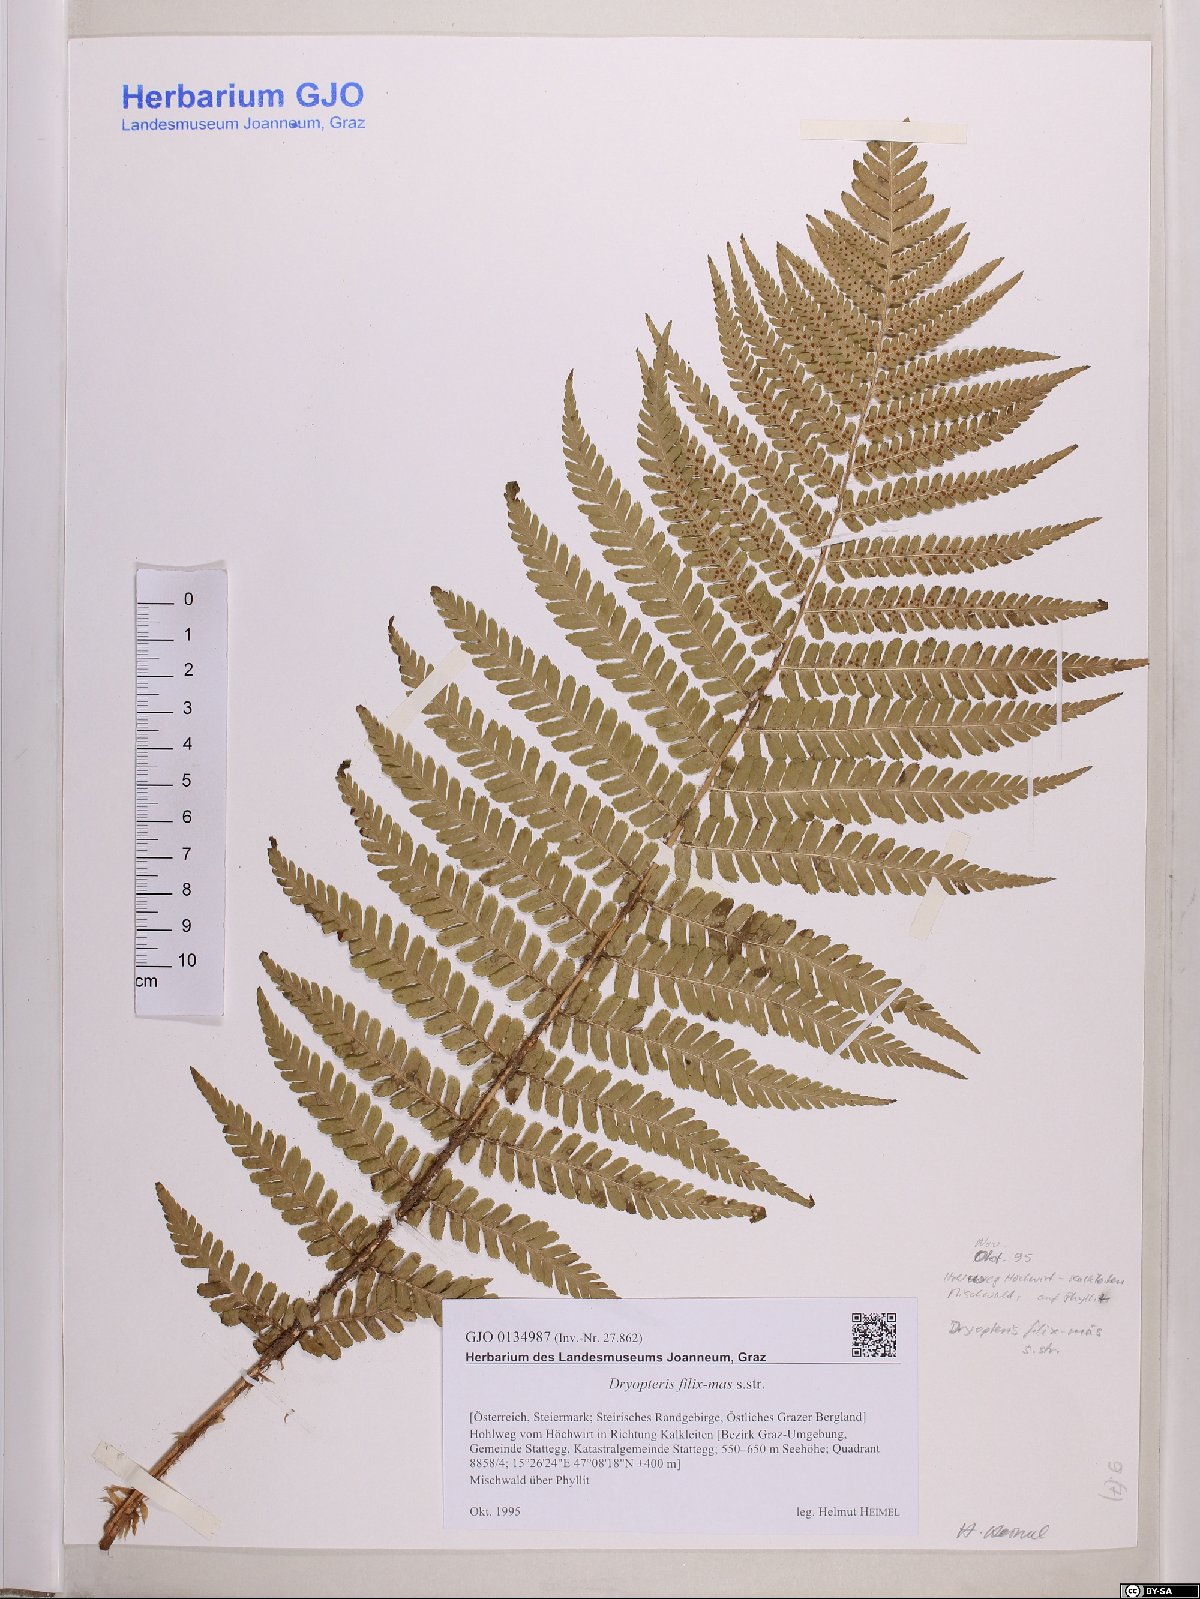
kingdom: Plantae
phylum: Tracheophyta
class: Polypodiopsida
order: Polypodiales
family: Dryopteridaceae
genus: Dryopteris
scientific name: Dryopteris filix-mas
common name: Male fern
